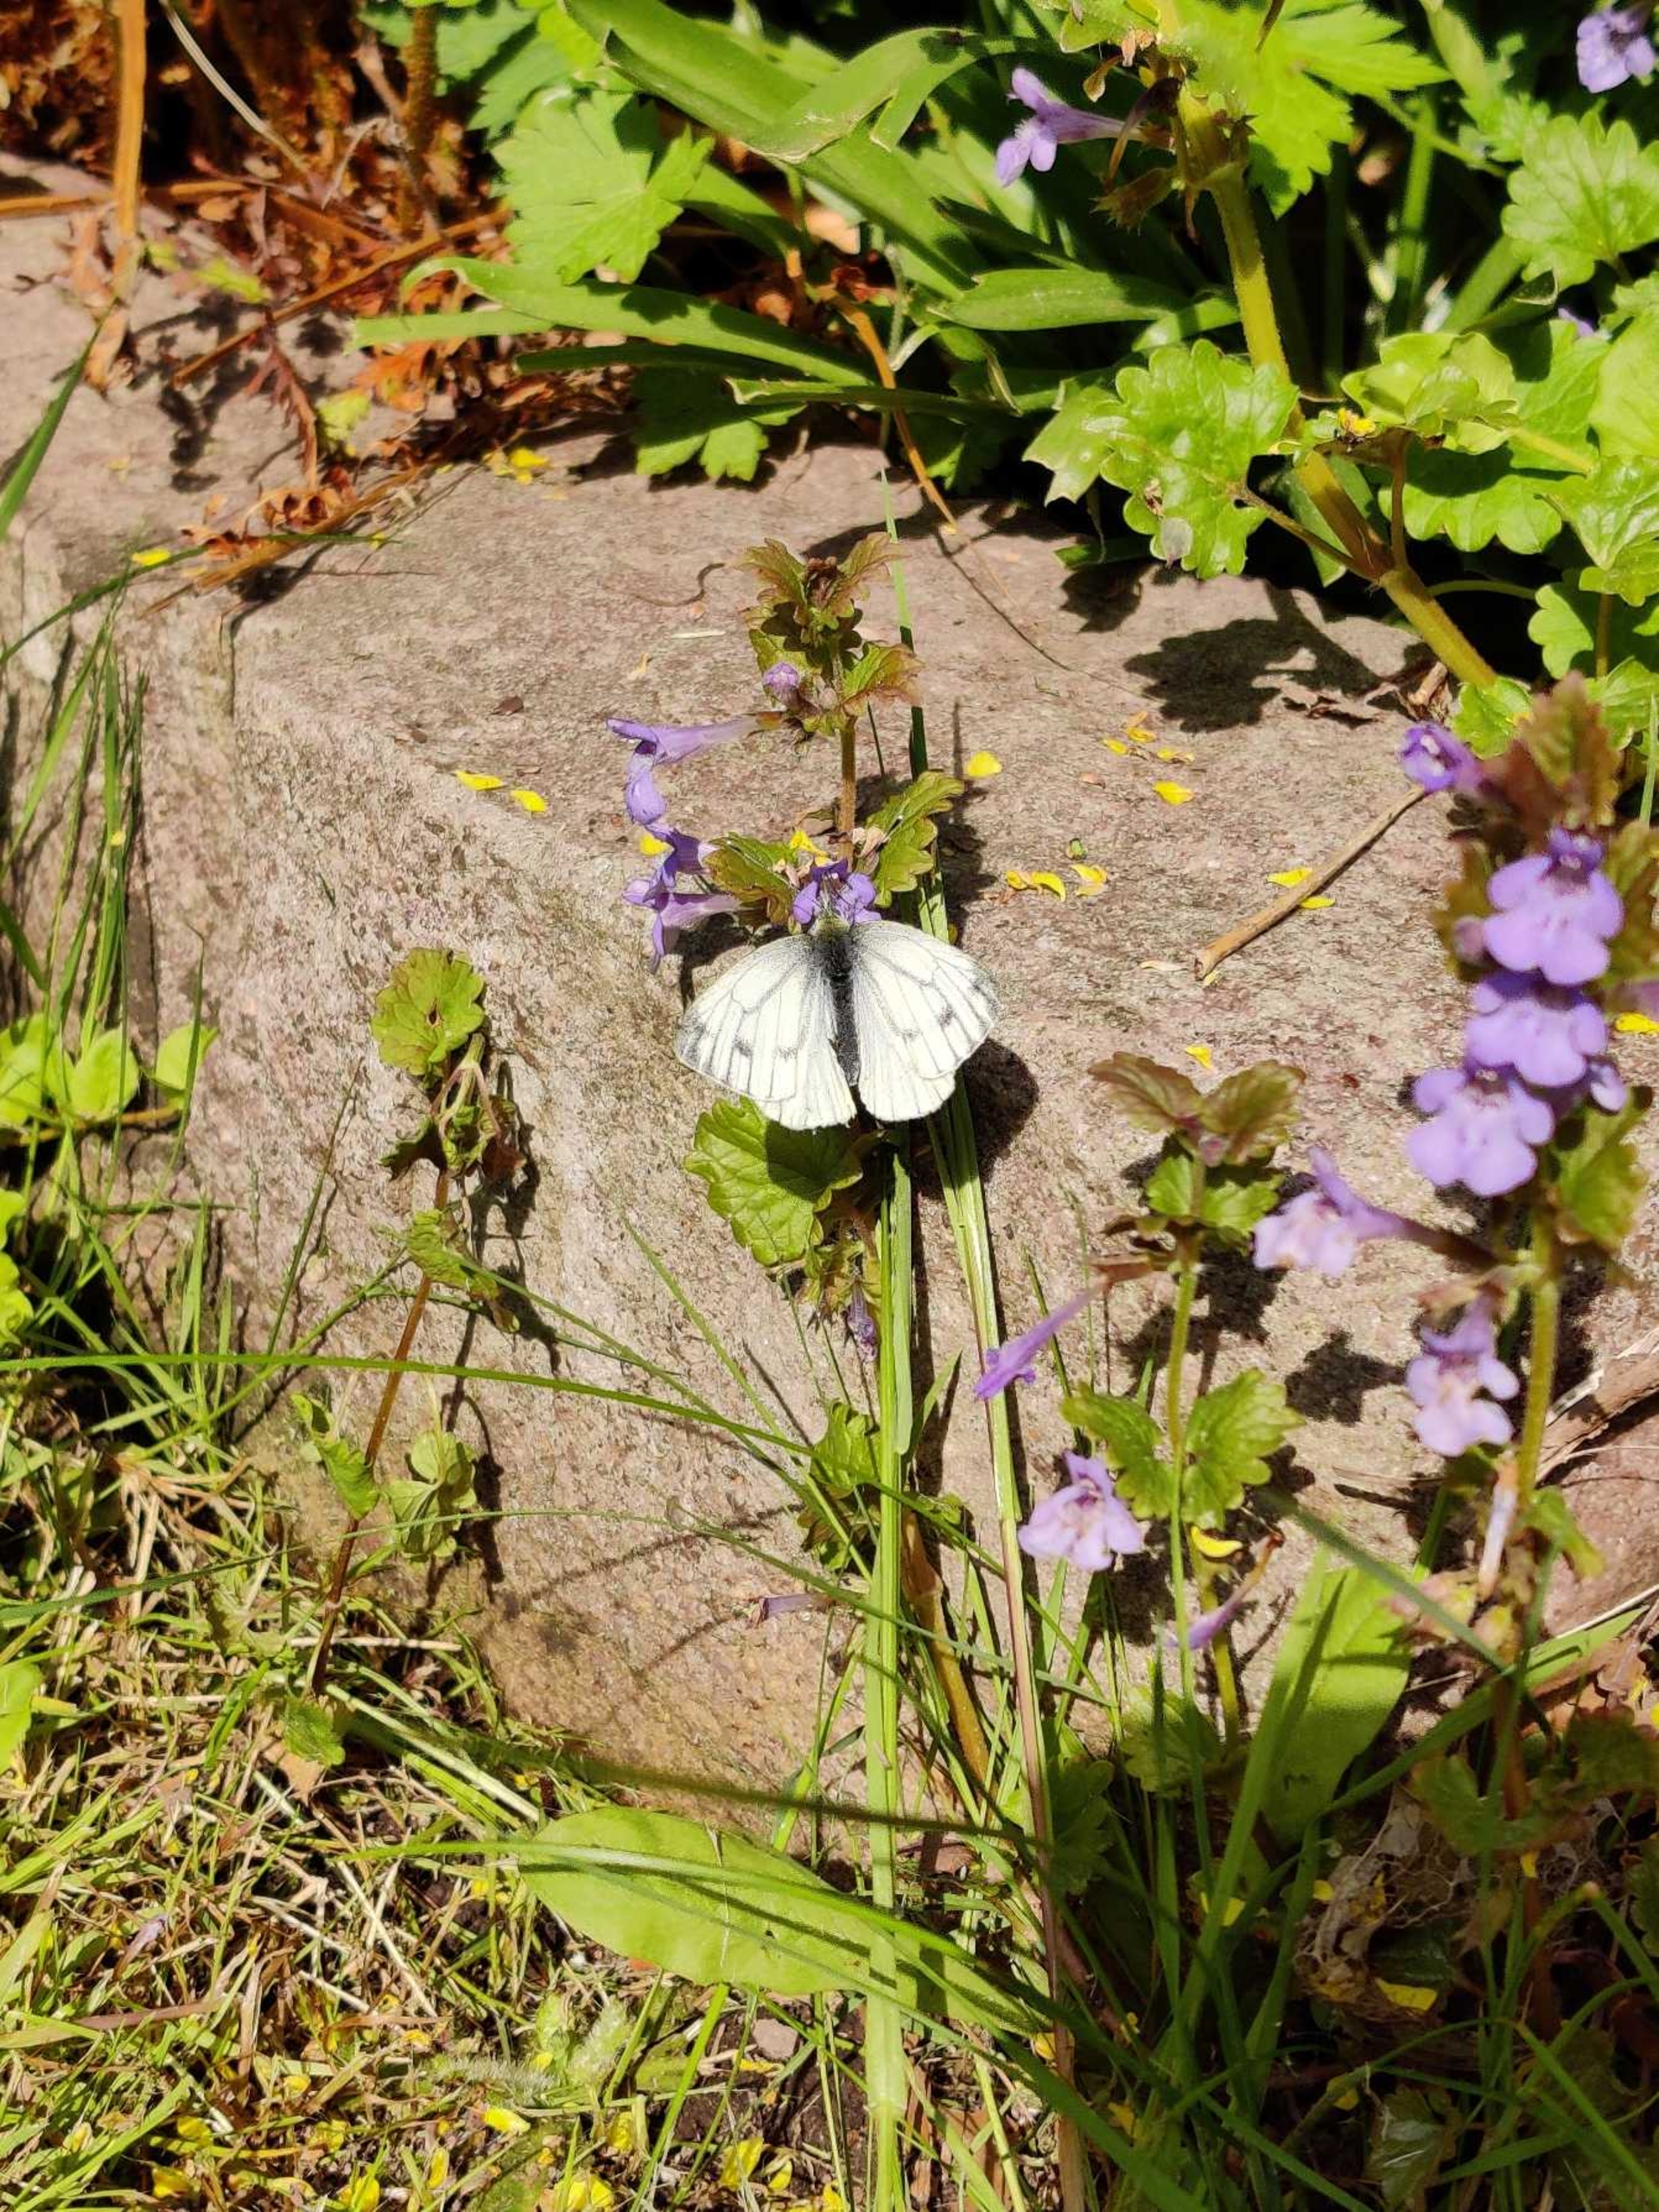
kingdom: Animalia
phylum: Arthropoda
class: Insecta
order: Lepidoptera
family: Pieridae
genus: Pieris
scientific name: Pieris napi
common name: Grønåret kålsommerfugl
